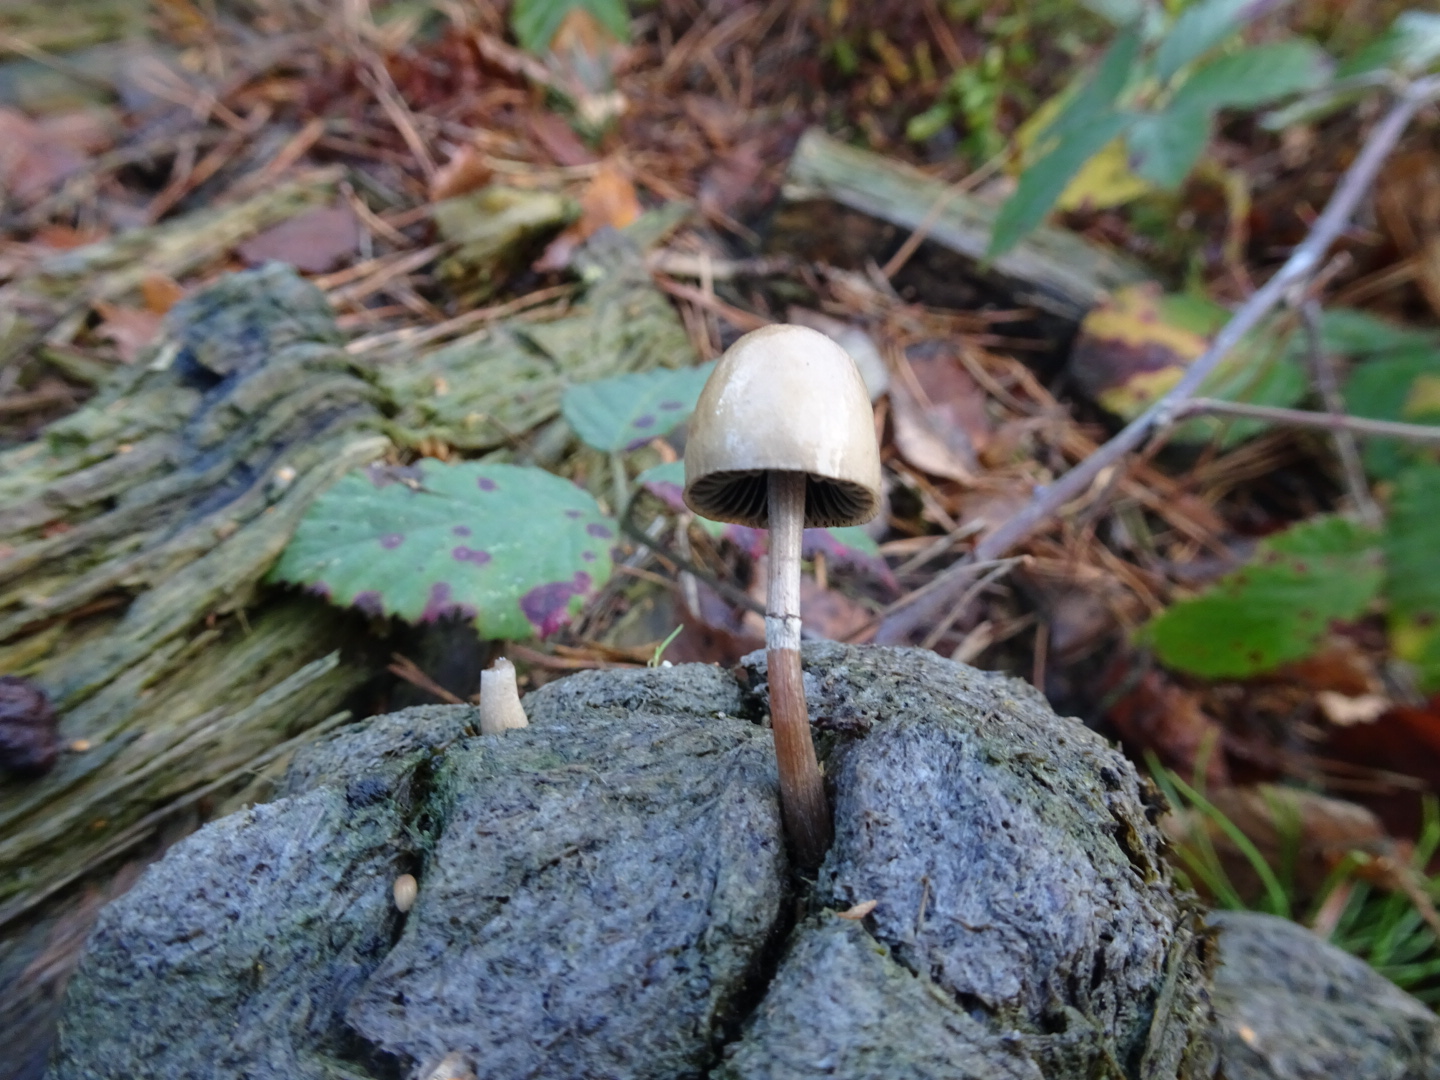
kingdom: Fungi
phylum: Basidiomycota
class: Agaricomycetes
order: Agaricales
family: Bolbitiaceae
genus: Panaeolus
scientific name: Panaeolus semiovatus
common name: ring-glanshat
